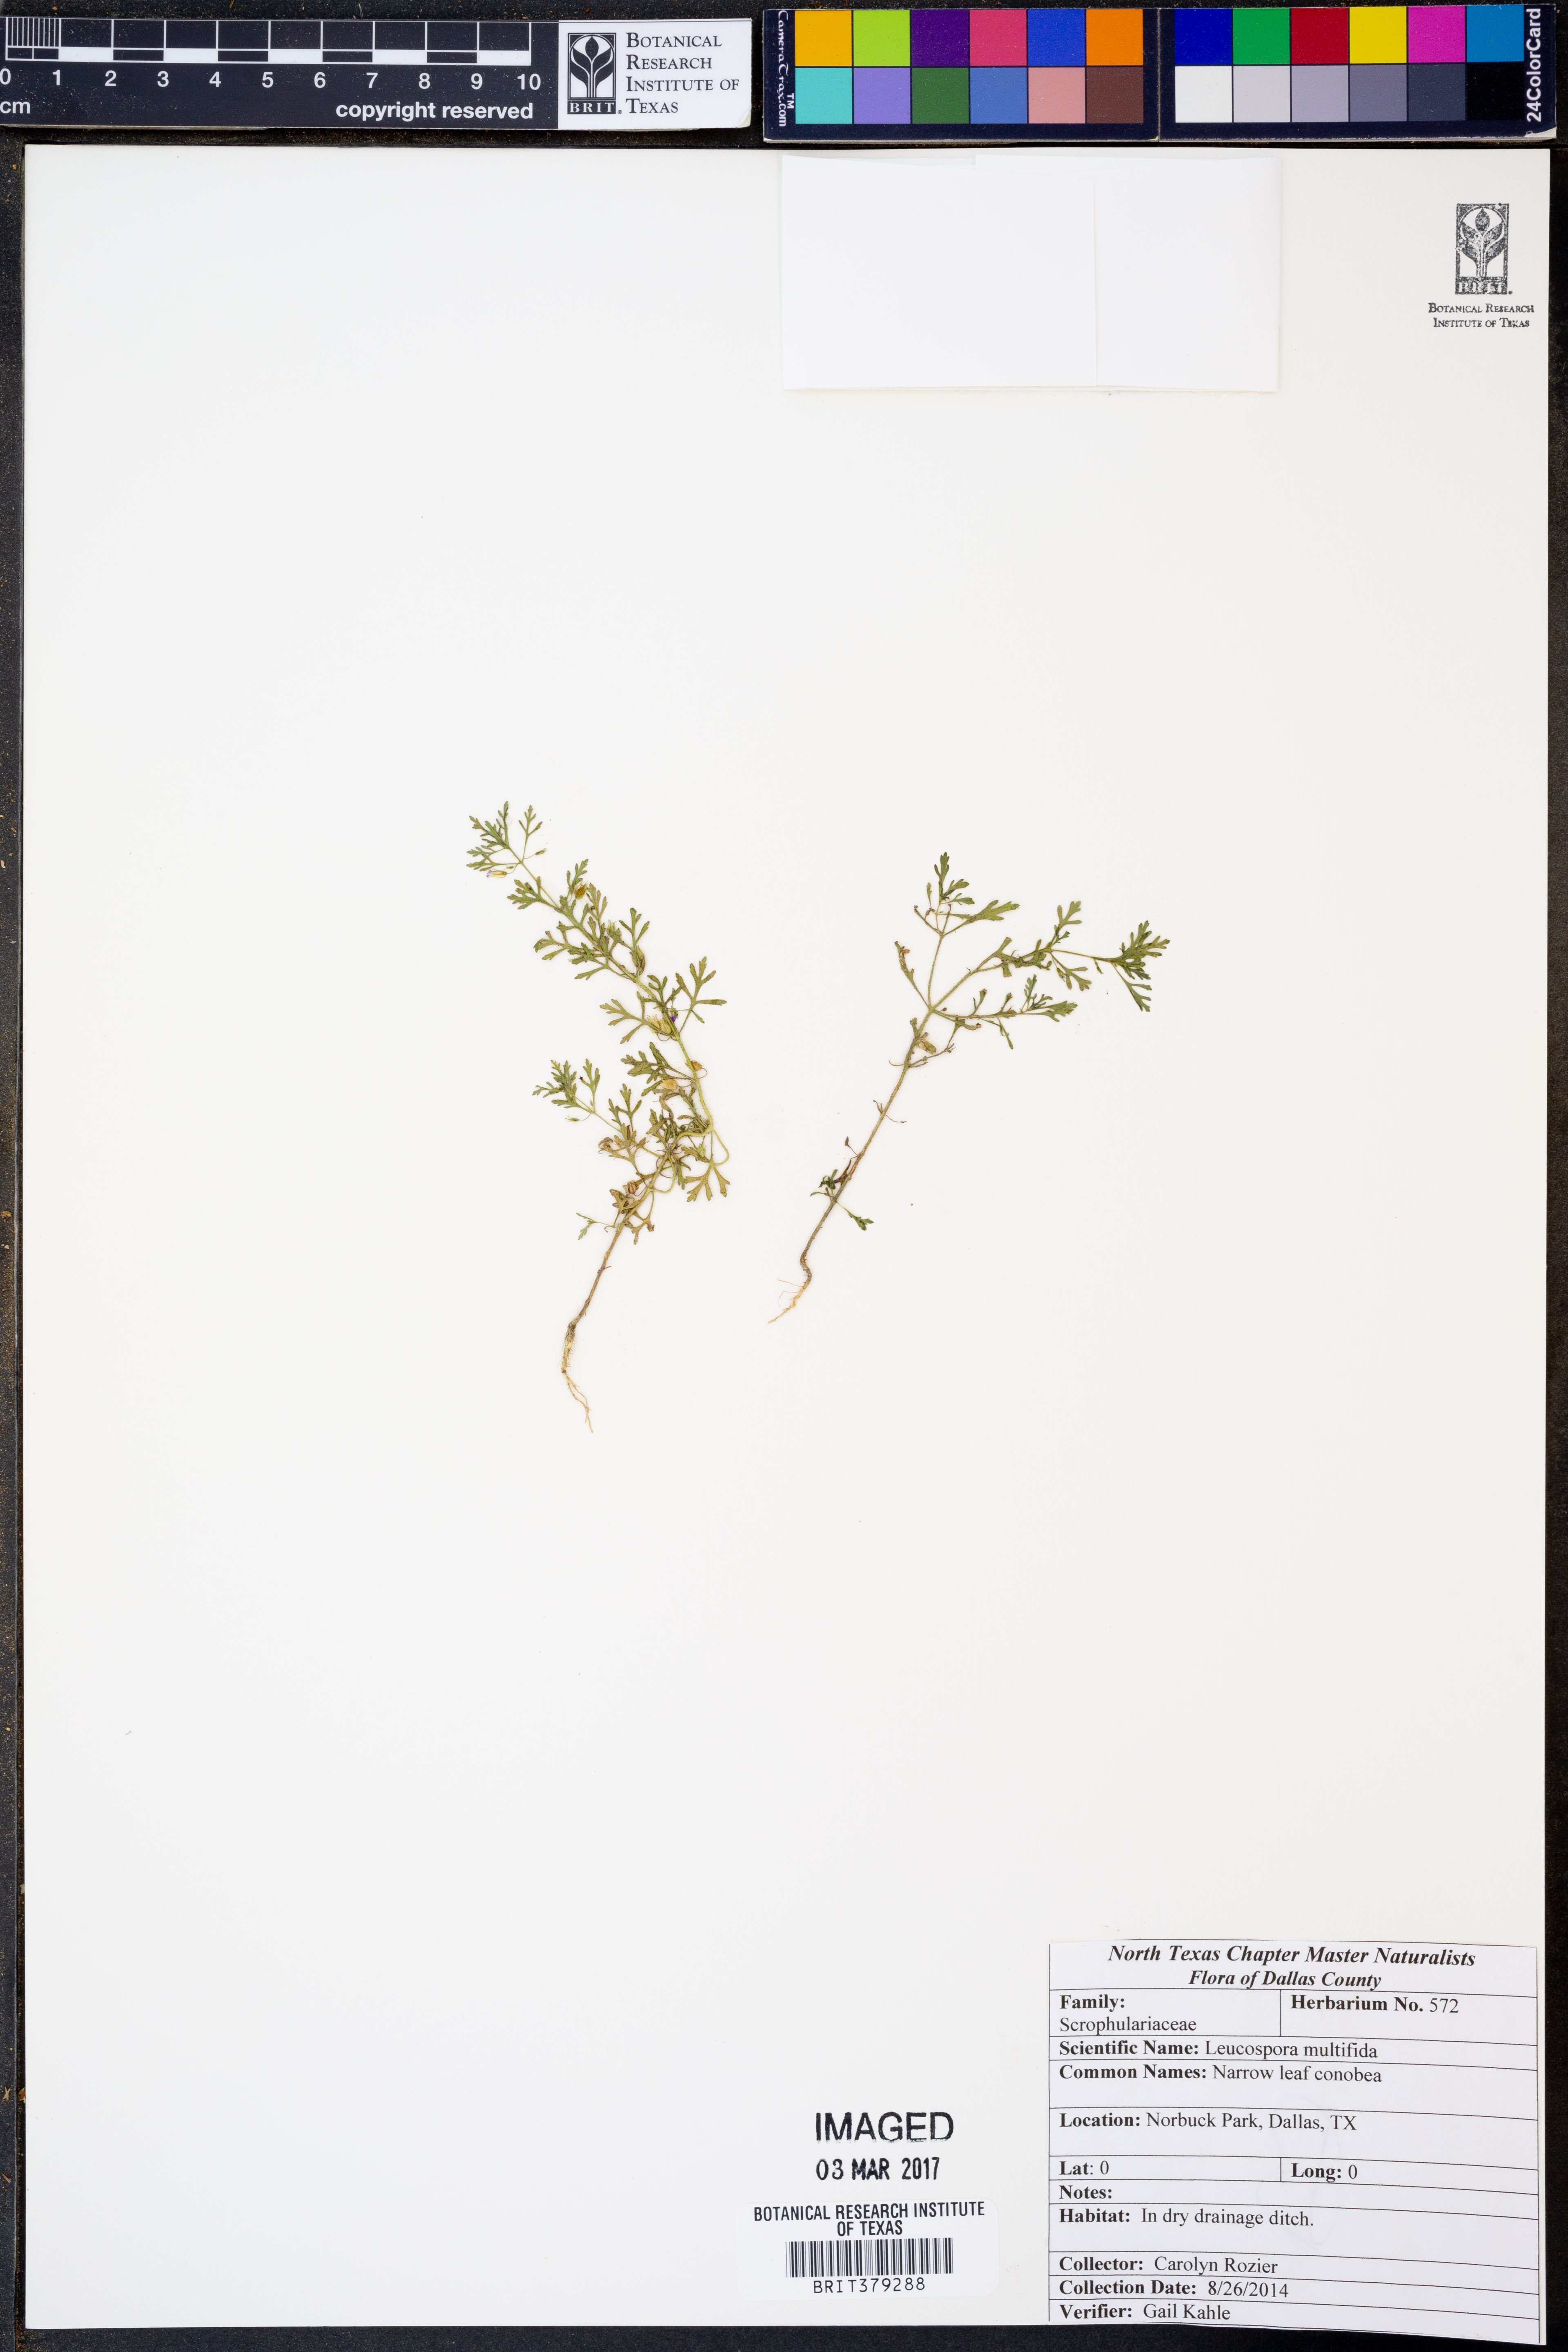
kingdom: Plantae
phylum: Tracheophyta
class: Magnoliopsida
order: Lamiales
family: Plantaginaceae
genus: Leucospora
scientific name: Leucospora multifida
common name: Narrow-leaf paleseed
